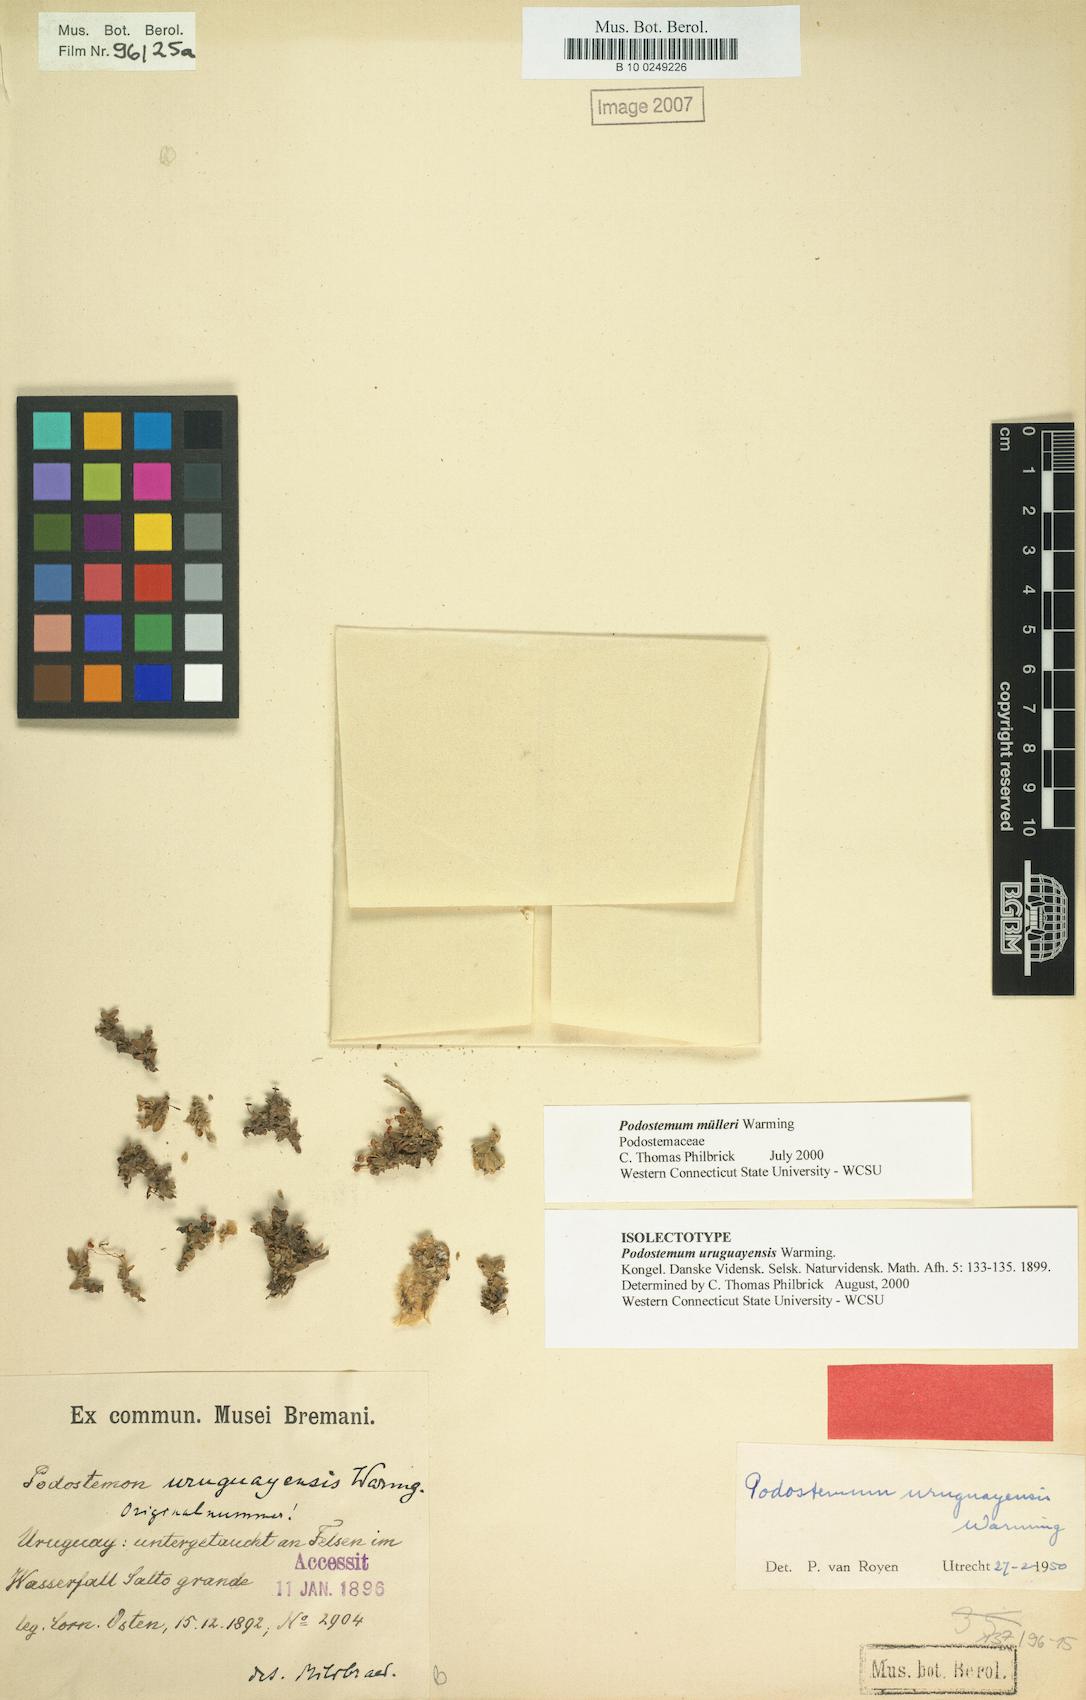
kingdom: Plantae
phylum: Tracheophyta
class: Magnoliopsida
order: Malpighiales
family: Podostemaceae
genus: Podostemum
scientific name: Podostemum muelleri
